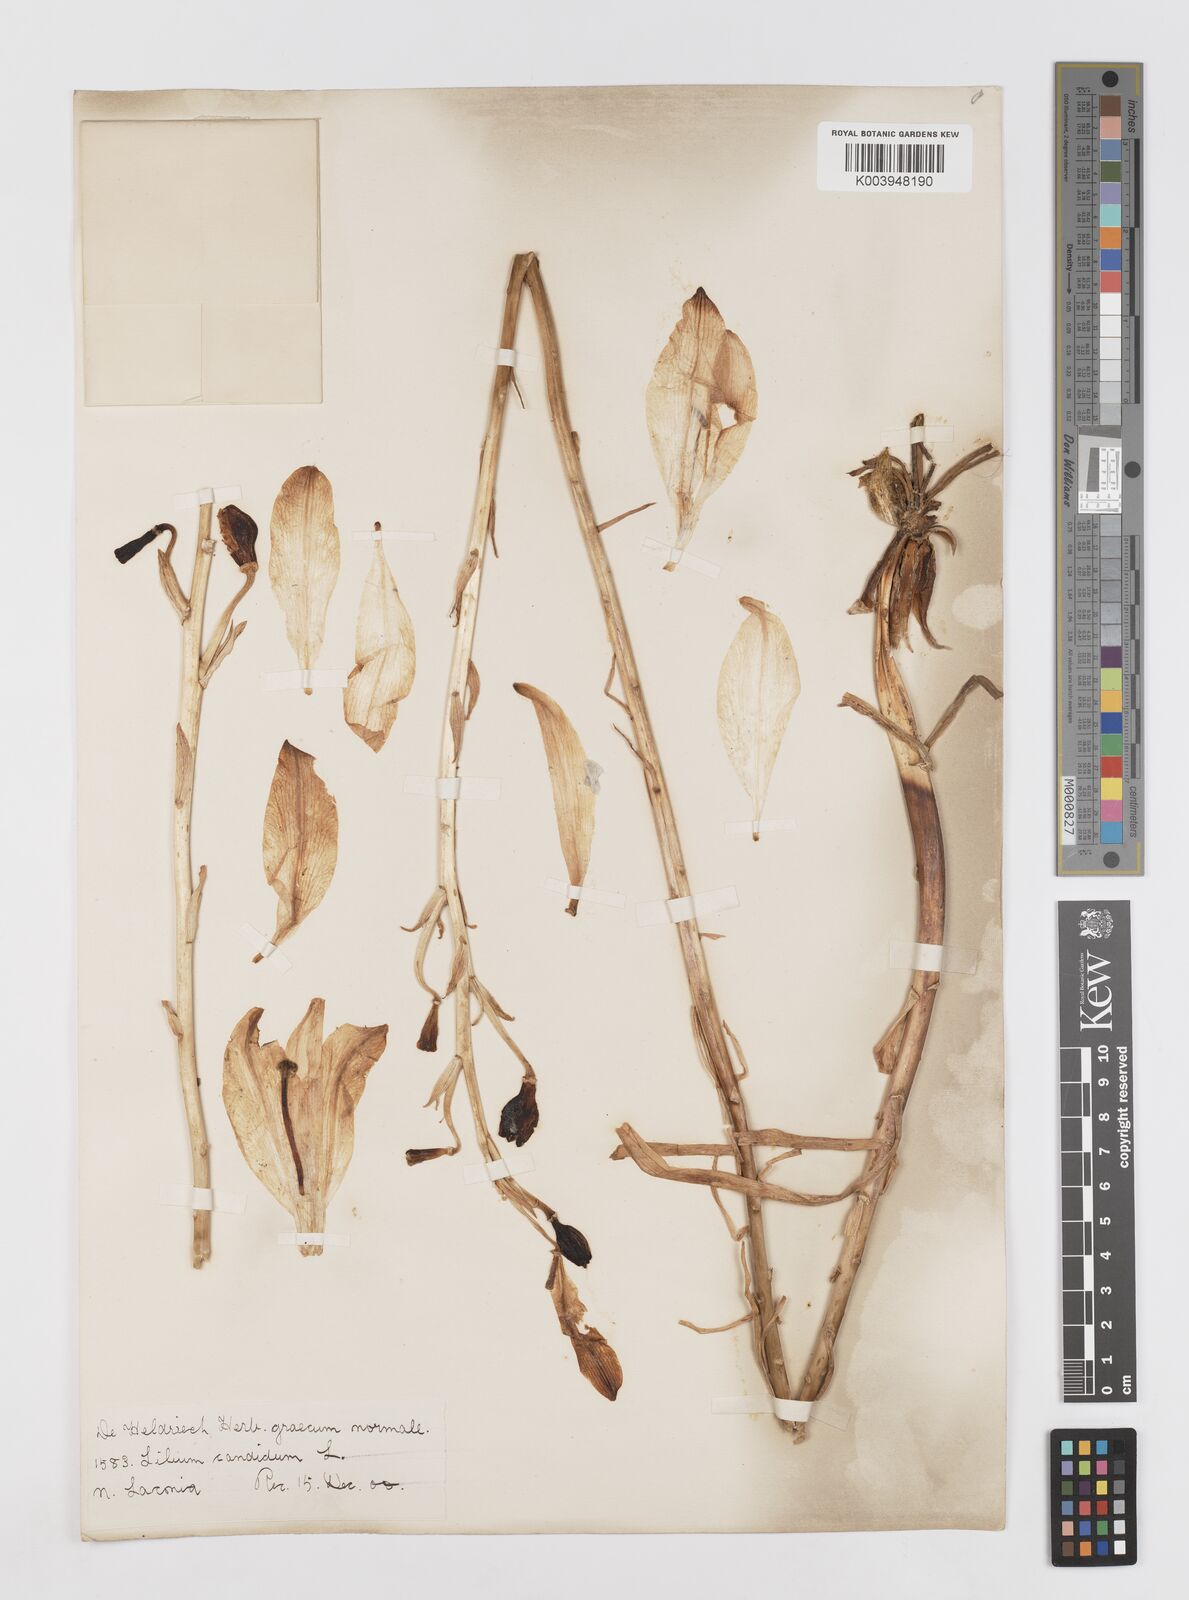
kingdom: Plantae
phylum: Tracheophyta
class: Liliopsida
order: Liliales
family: Liliaceae
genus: Lilium
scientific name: Lilium candidum
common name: Madonna lily
